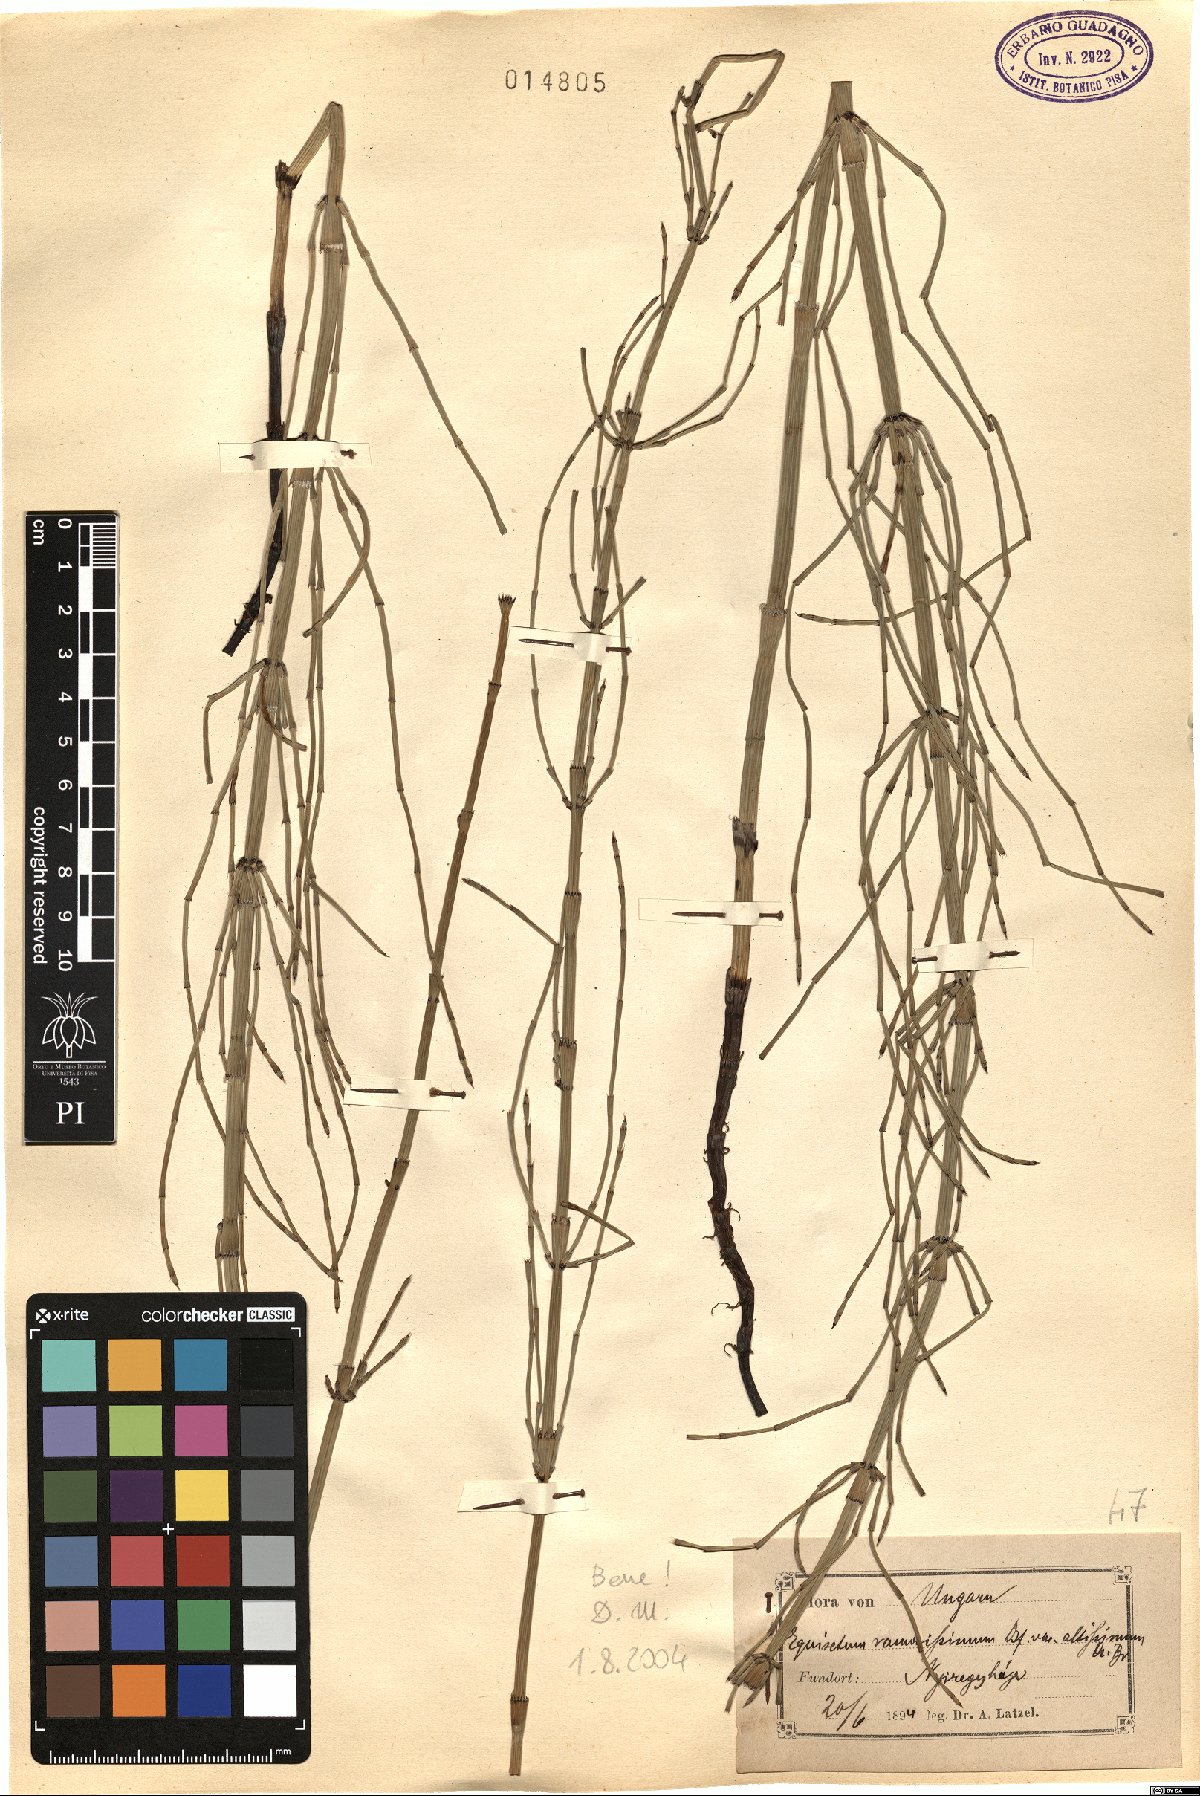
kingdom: Plantae
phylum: Tracheophyta
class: Polypodiopsida
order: Equisetales
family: Equisetaceae
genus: Equisetum
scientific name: Equisetum ramosissimum
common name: Branched horsetail
